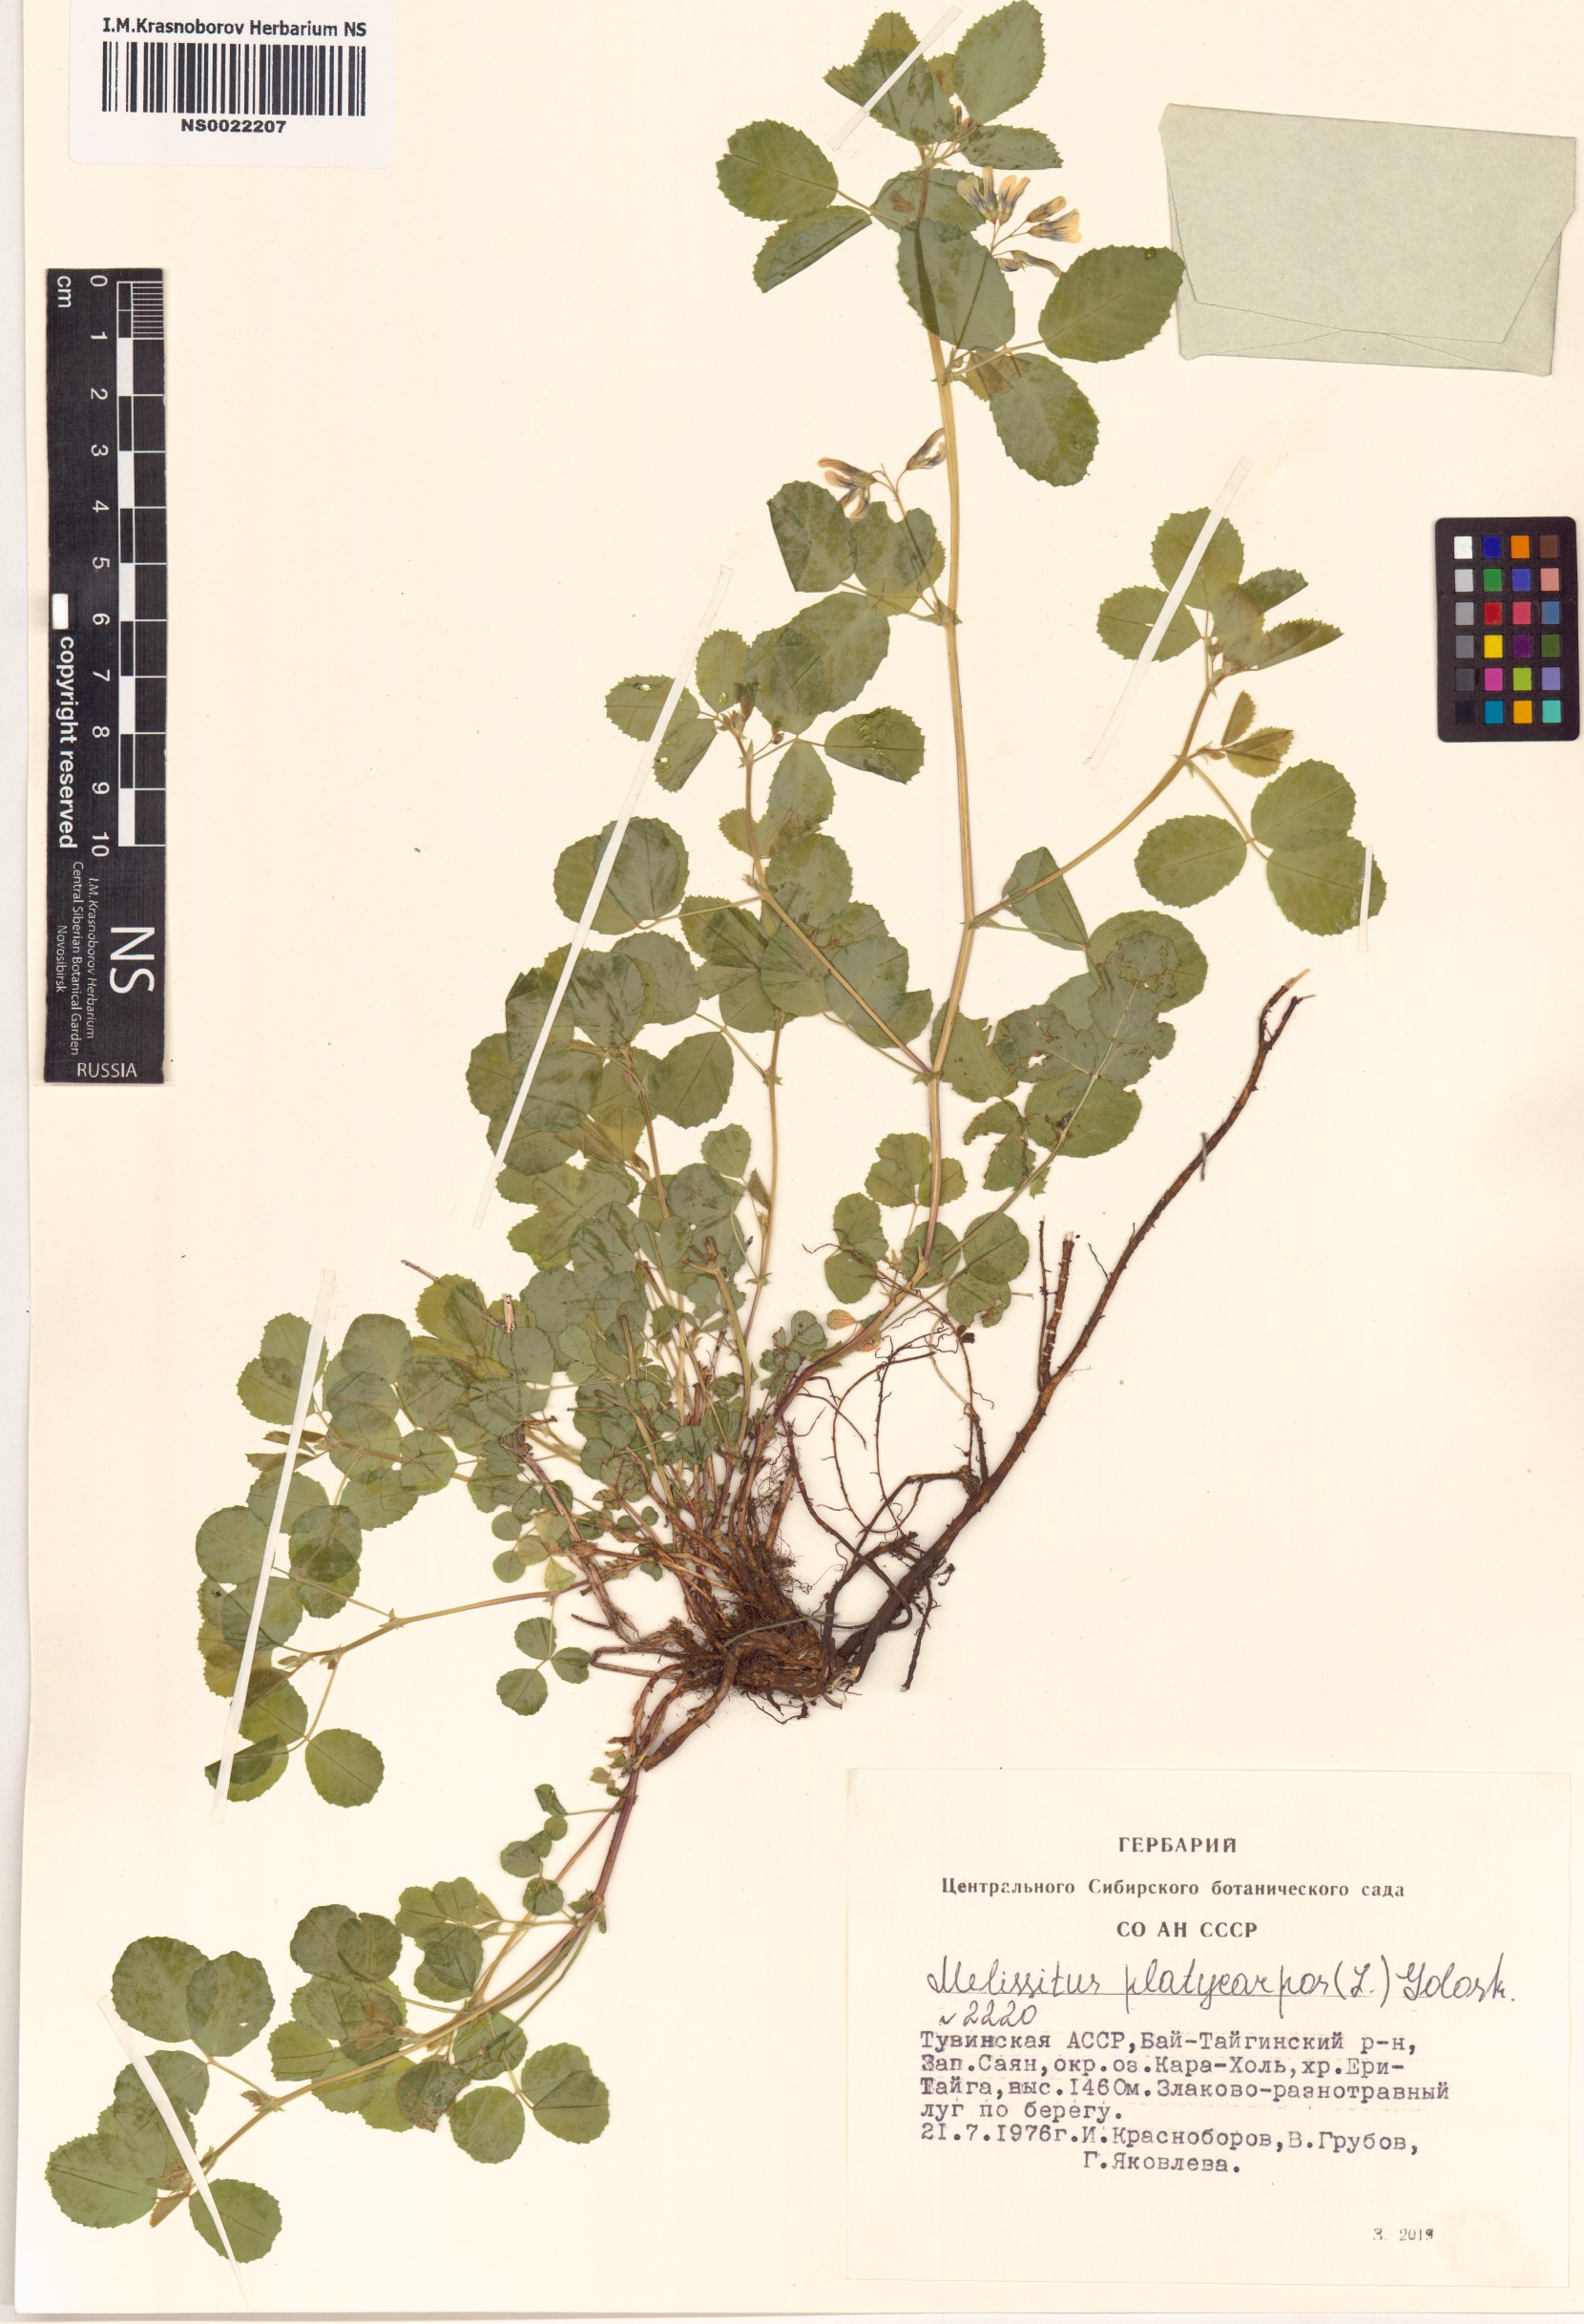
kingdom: Plantae
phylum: Tracheophyta
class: Magnoliopsida
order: Fabales
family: Fabaceae
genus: Medicago
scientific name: Medicago platycarpos
